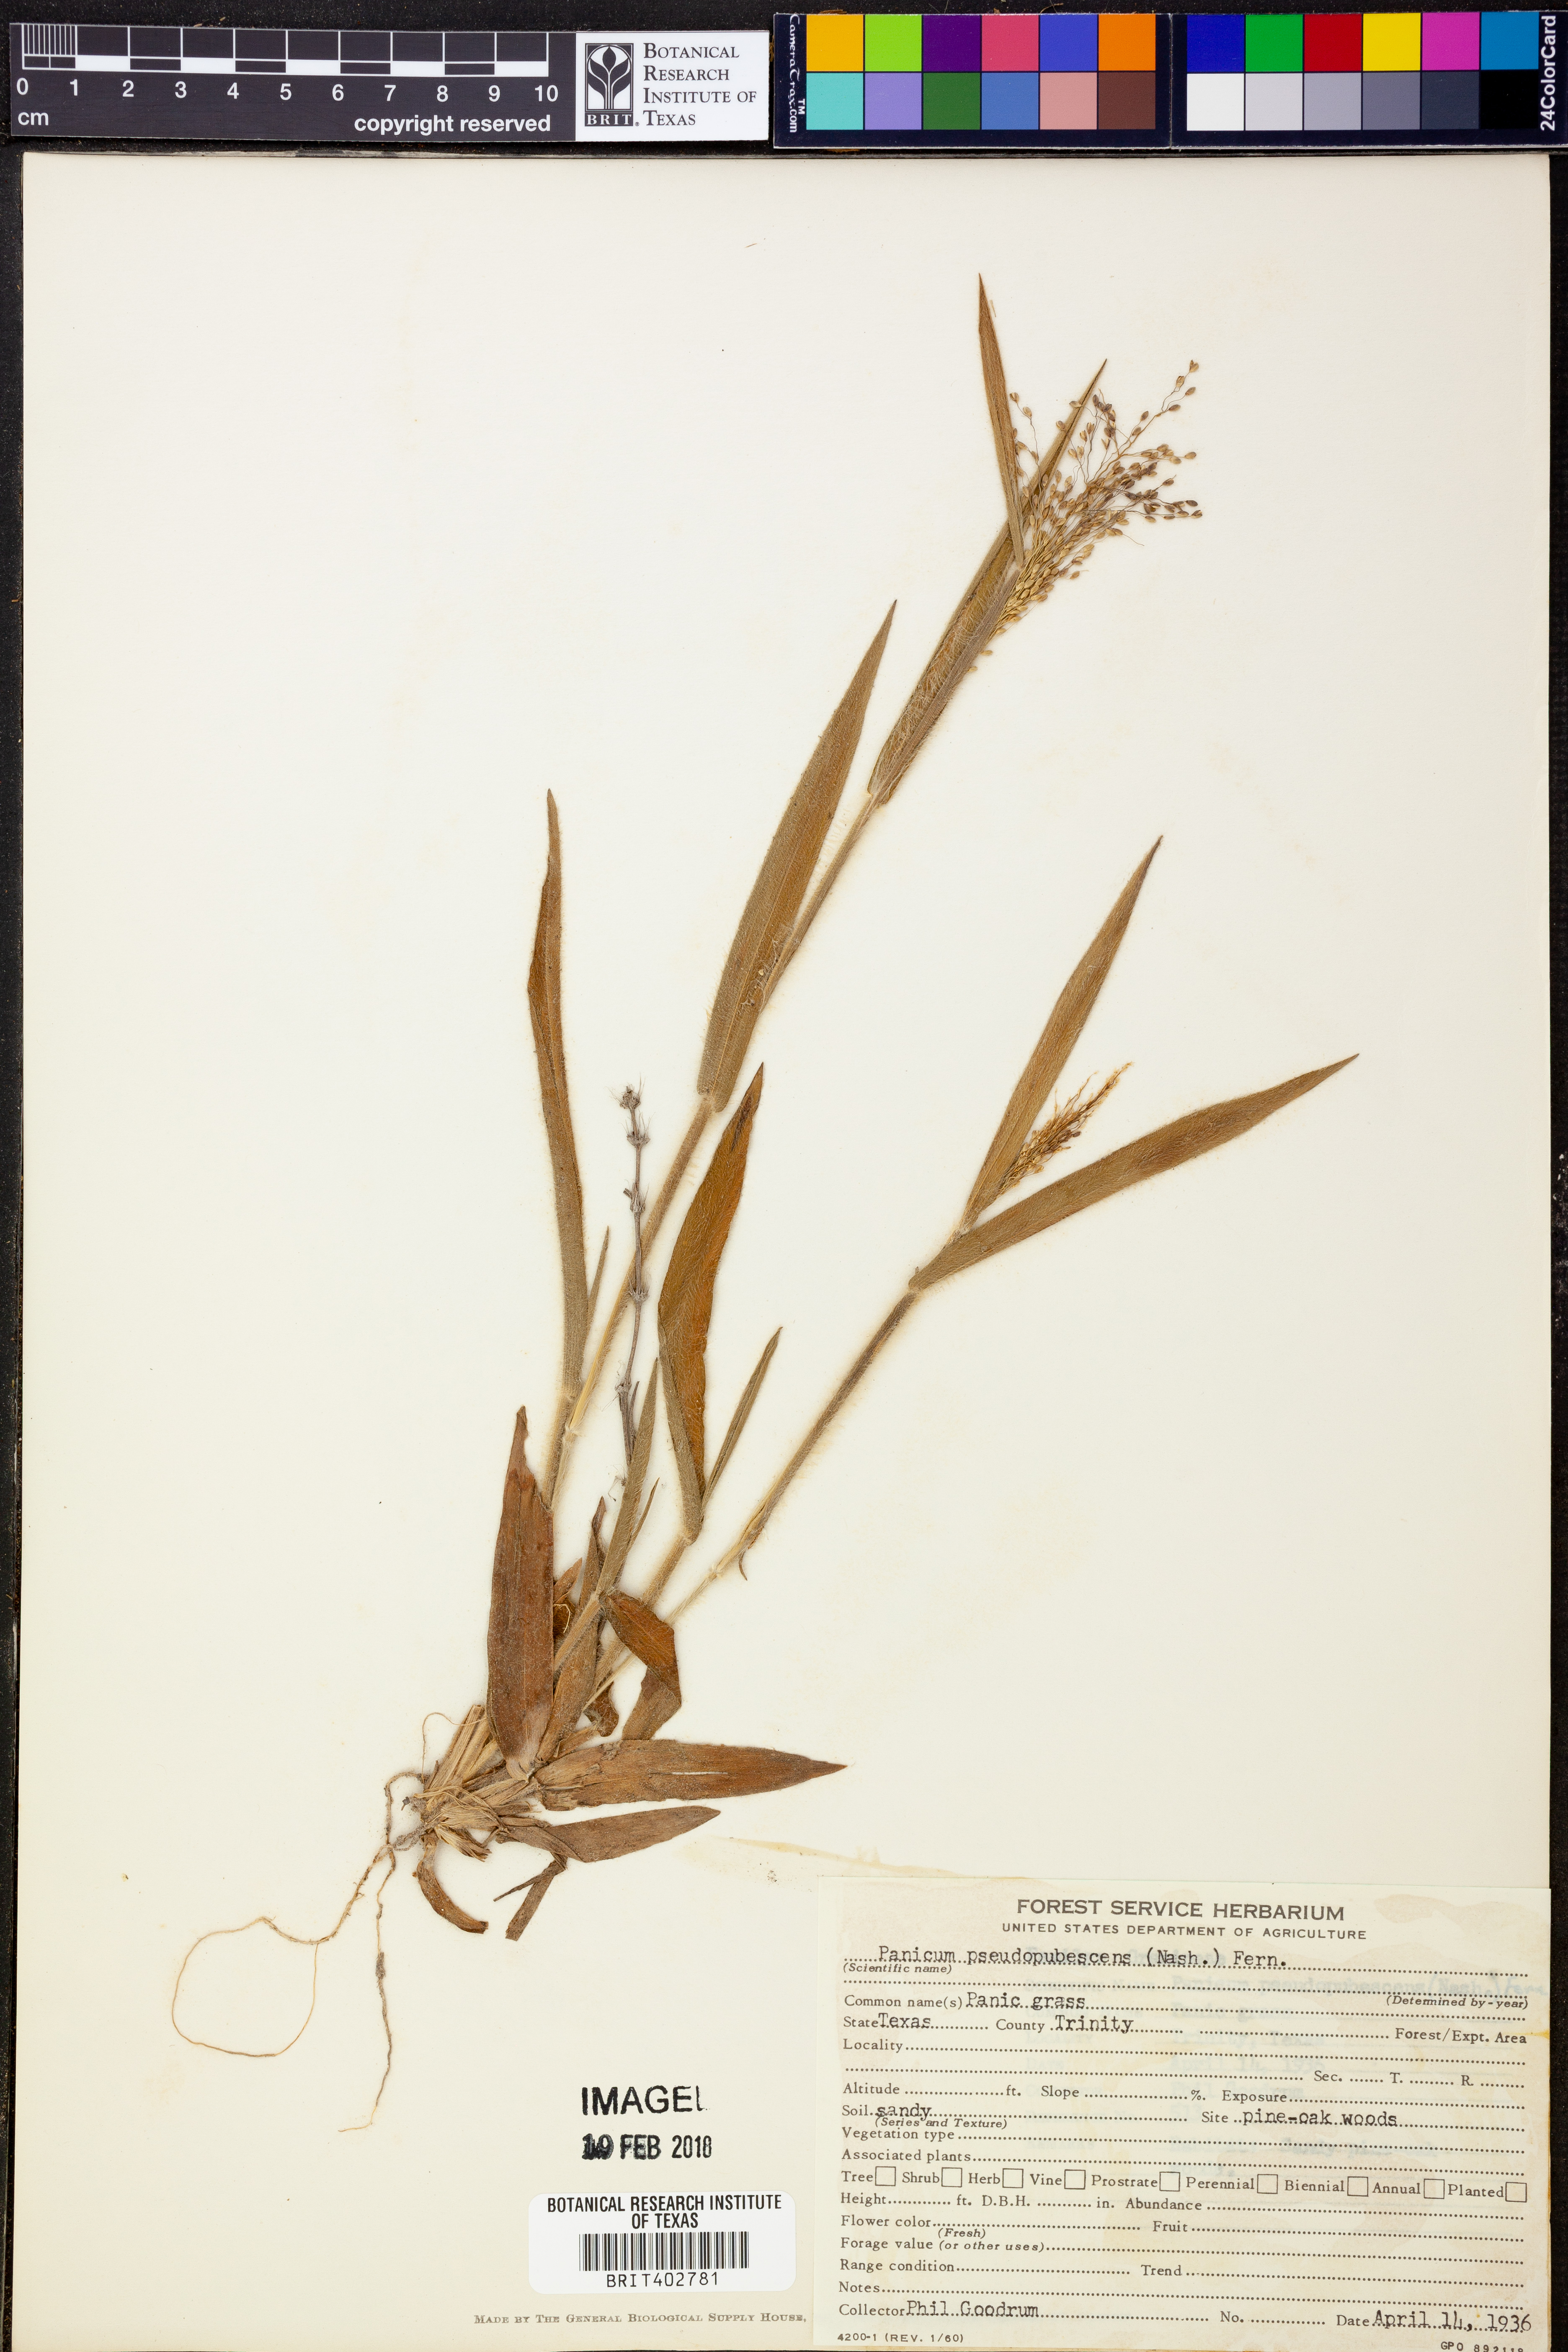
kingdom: Plantae
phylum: Tracheophyta
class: Liliopsida
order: Poales
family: Poaceae
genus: Dichanthelium
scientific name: Dichanthelium villosissimum
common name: White-haired panicgrass
